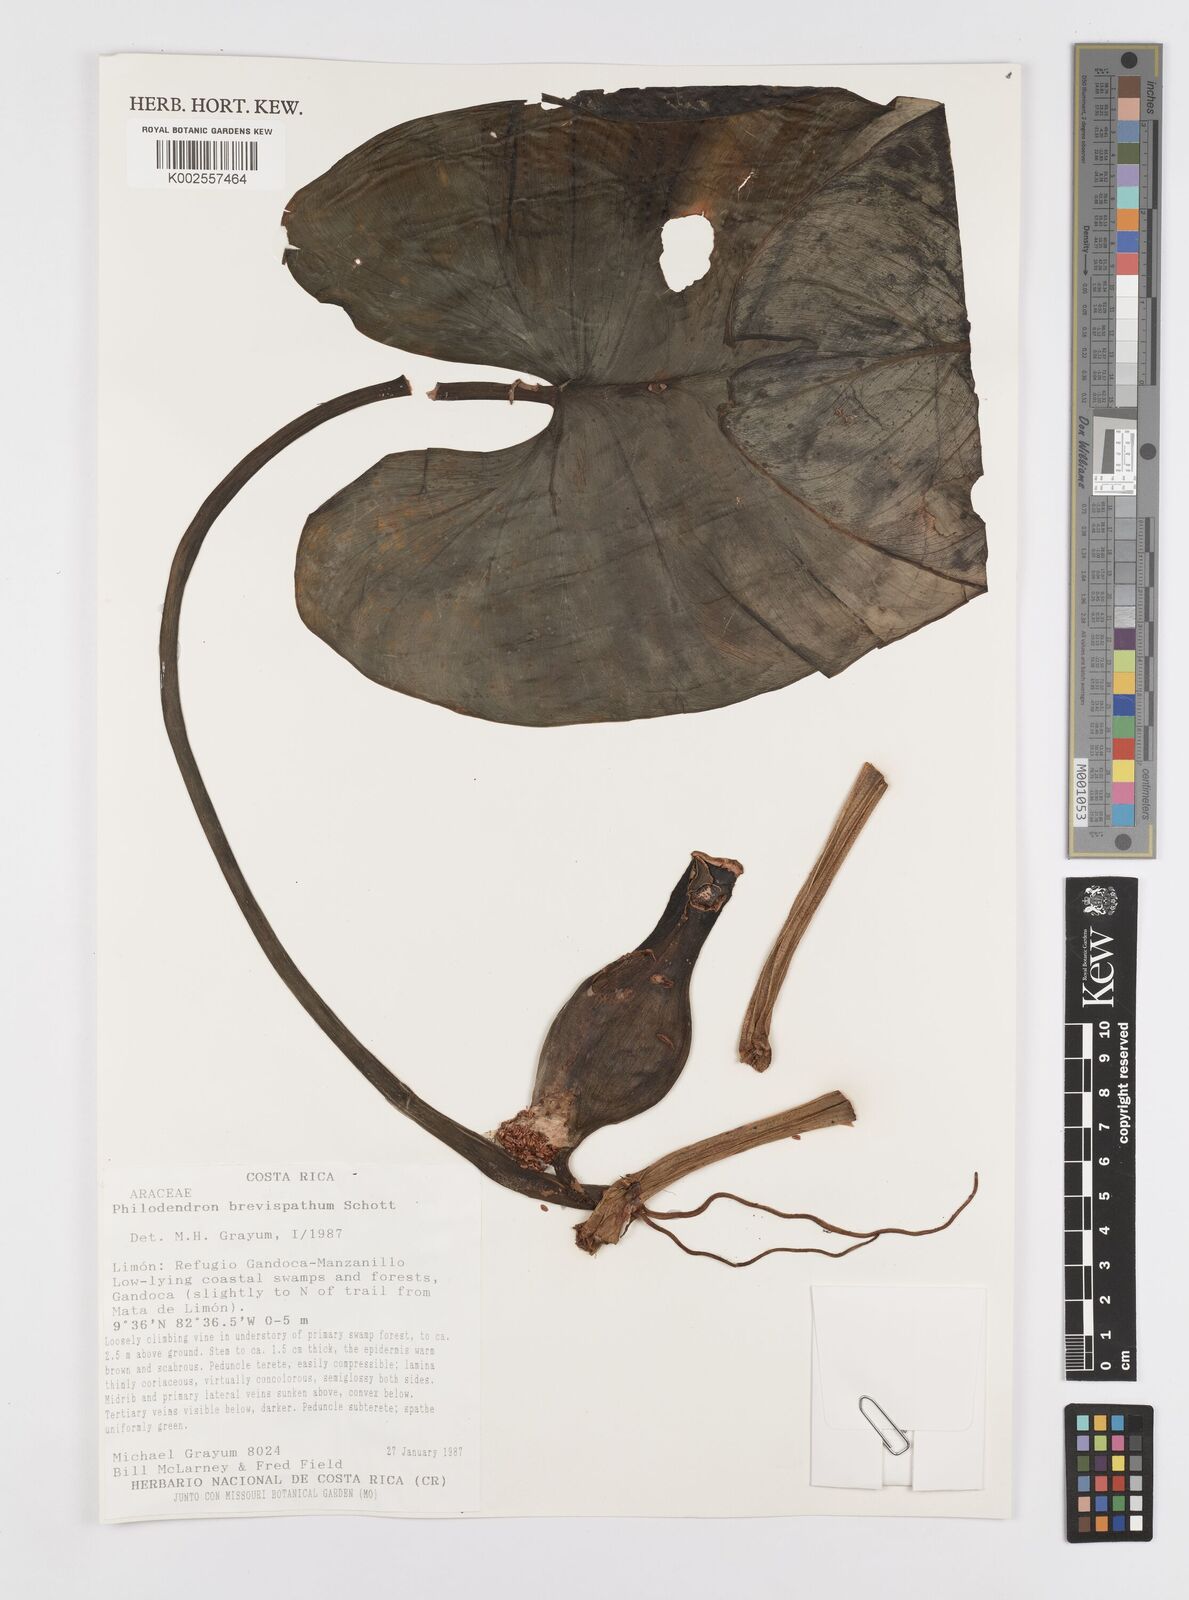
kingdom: Plantae
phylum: Tracheophyta
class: Liliopsida
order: Alismatales
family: Araceae
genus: Philodendron
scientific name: Philodendron brevispathum
